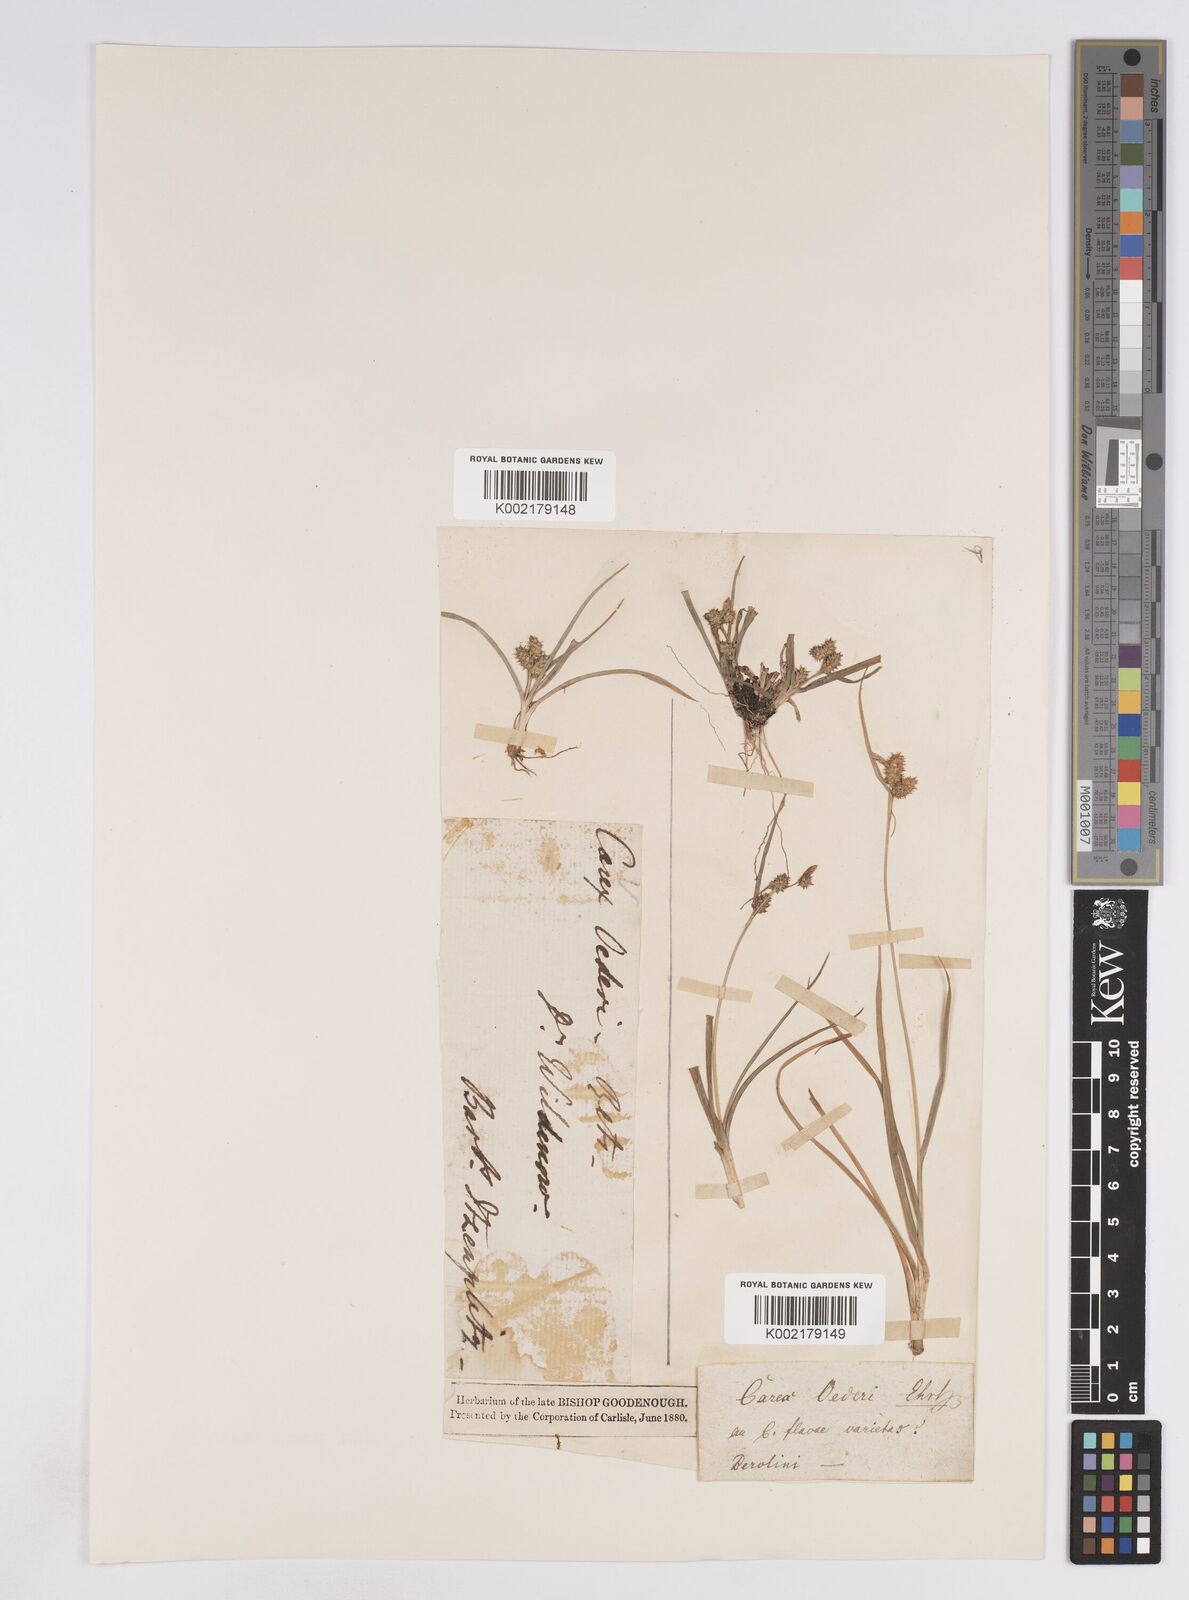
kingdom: Plantae
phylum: Tracheophyta
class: Liliopsida
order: Poales
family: Cyperaceae
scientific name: Cyperaceae
